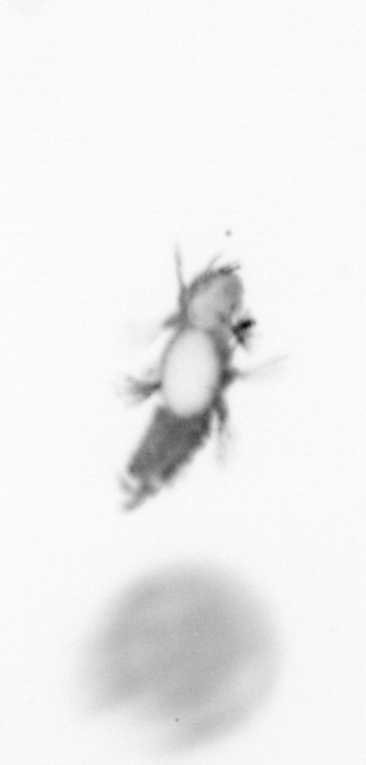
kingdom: Animalia
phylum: Annelida
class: Polychaeta
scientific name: Polychaeta
